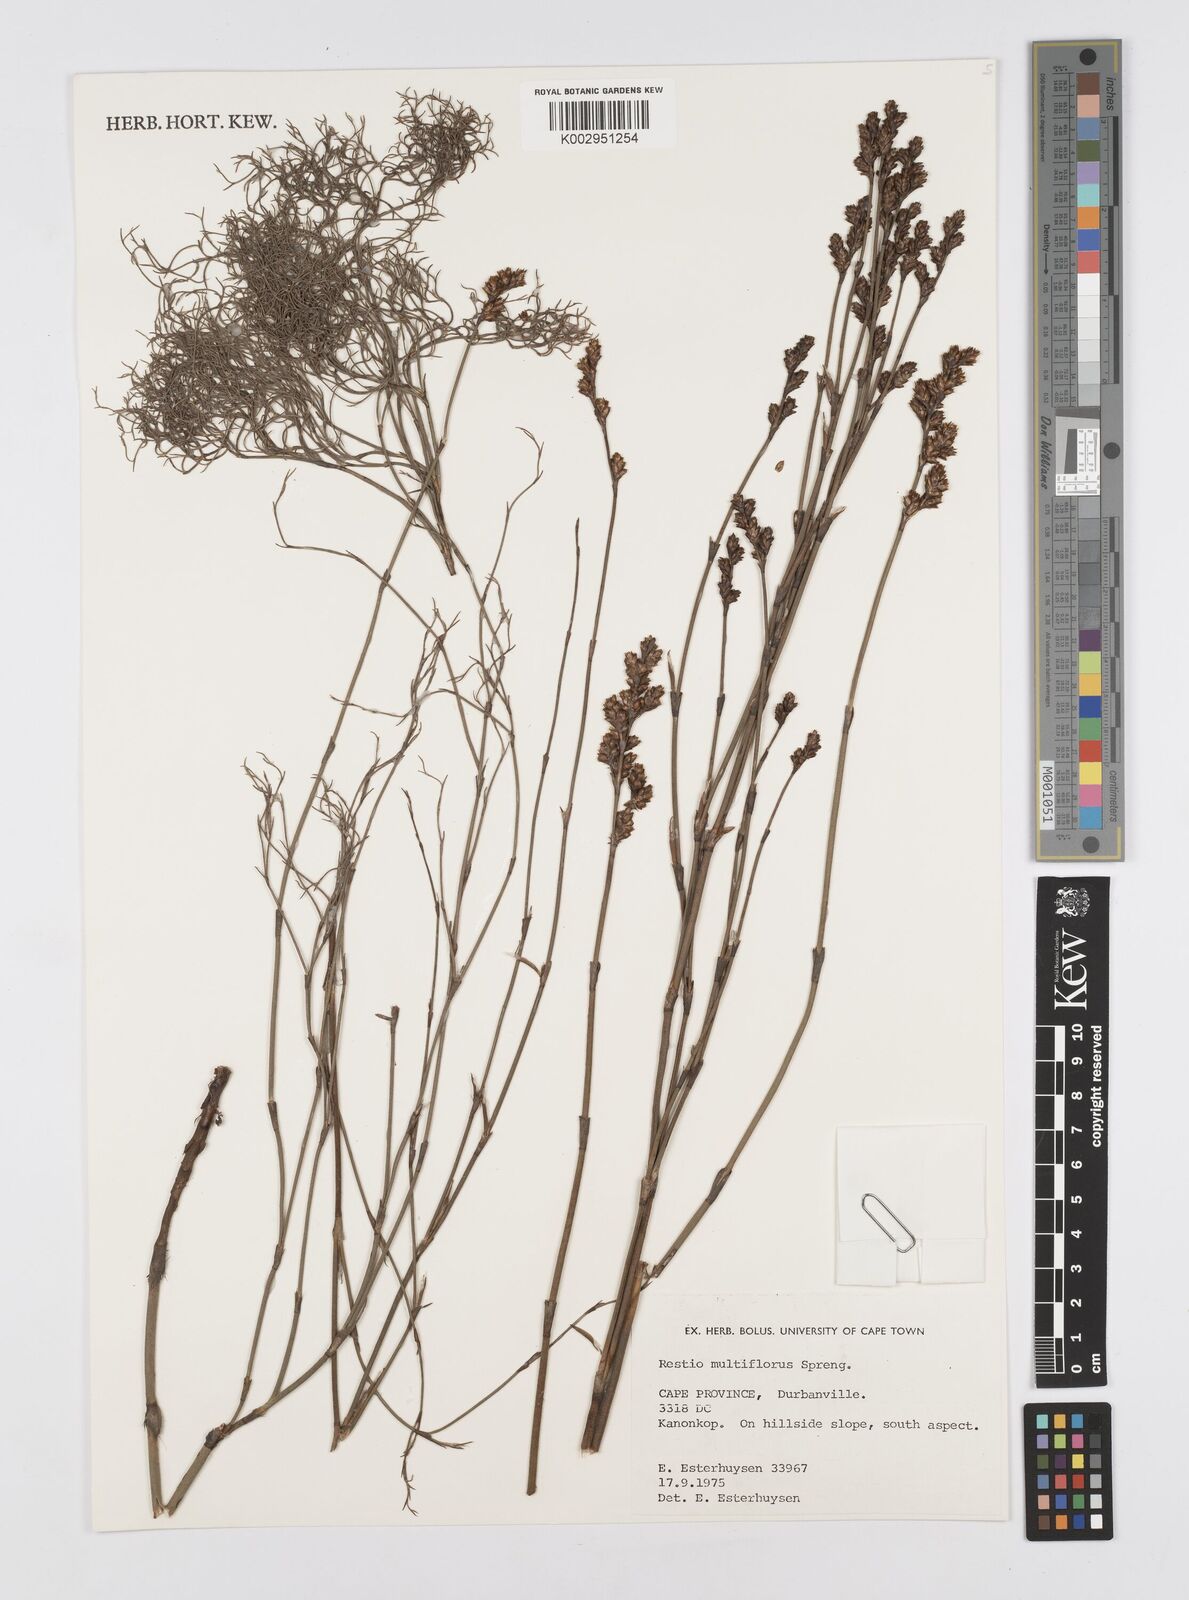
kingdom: Plantae
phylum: Tracheophyta
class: Liliopsida
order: Poales
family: Restionaceae
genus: Restio
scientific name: Restio multiflorus
